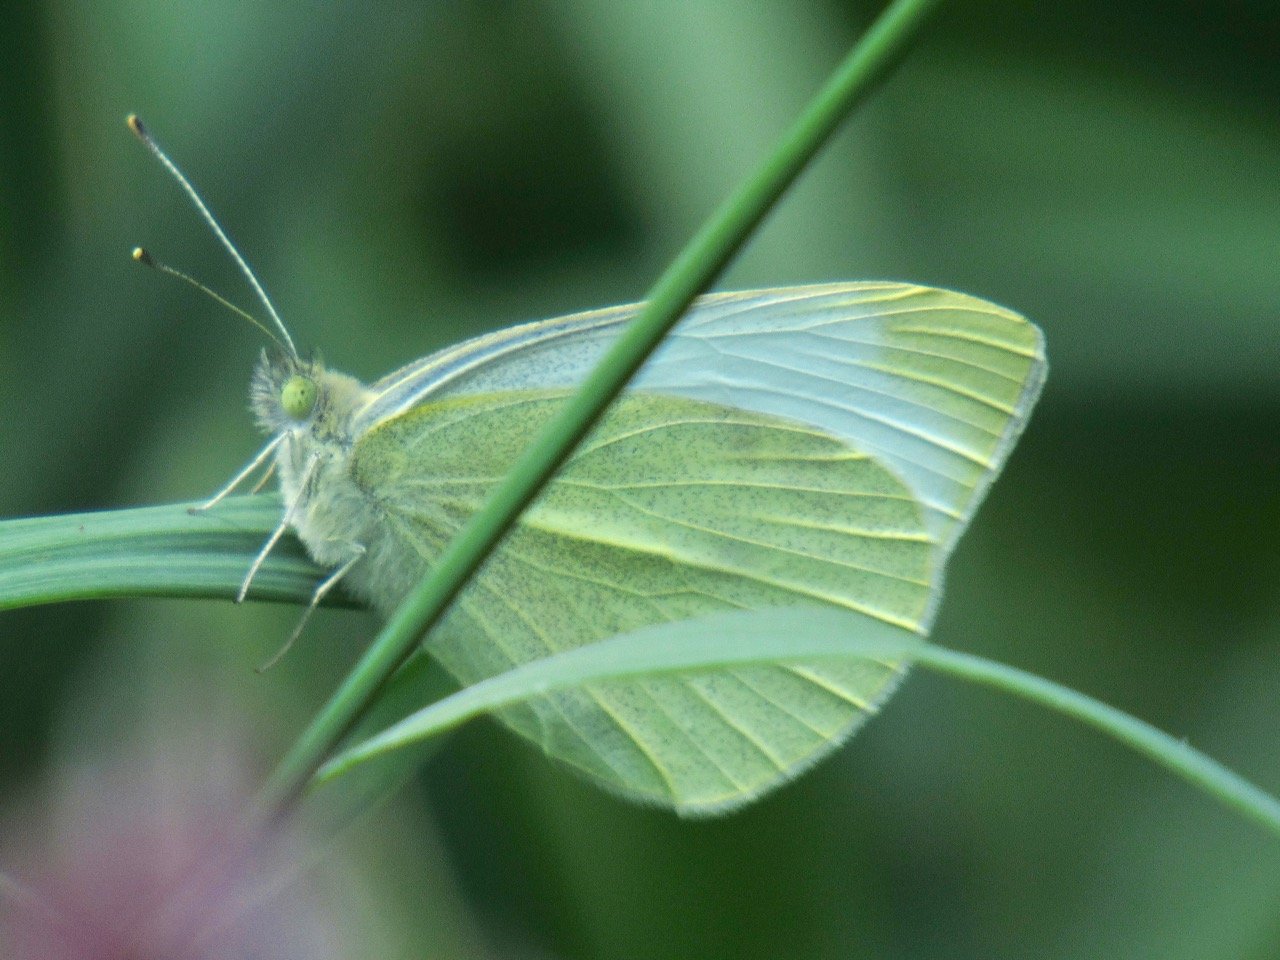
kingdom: Animalia
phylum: Arthropoda
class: Insecta
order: Lepidoptera
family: Pieridae
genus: Pieris
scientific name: Pieris rapae
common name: Cabbage White
